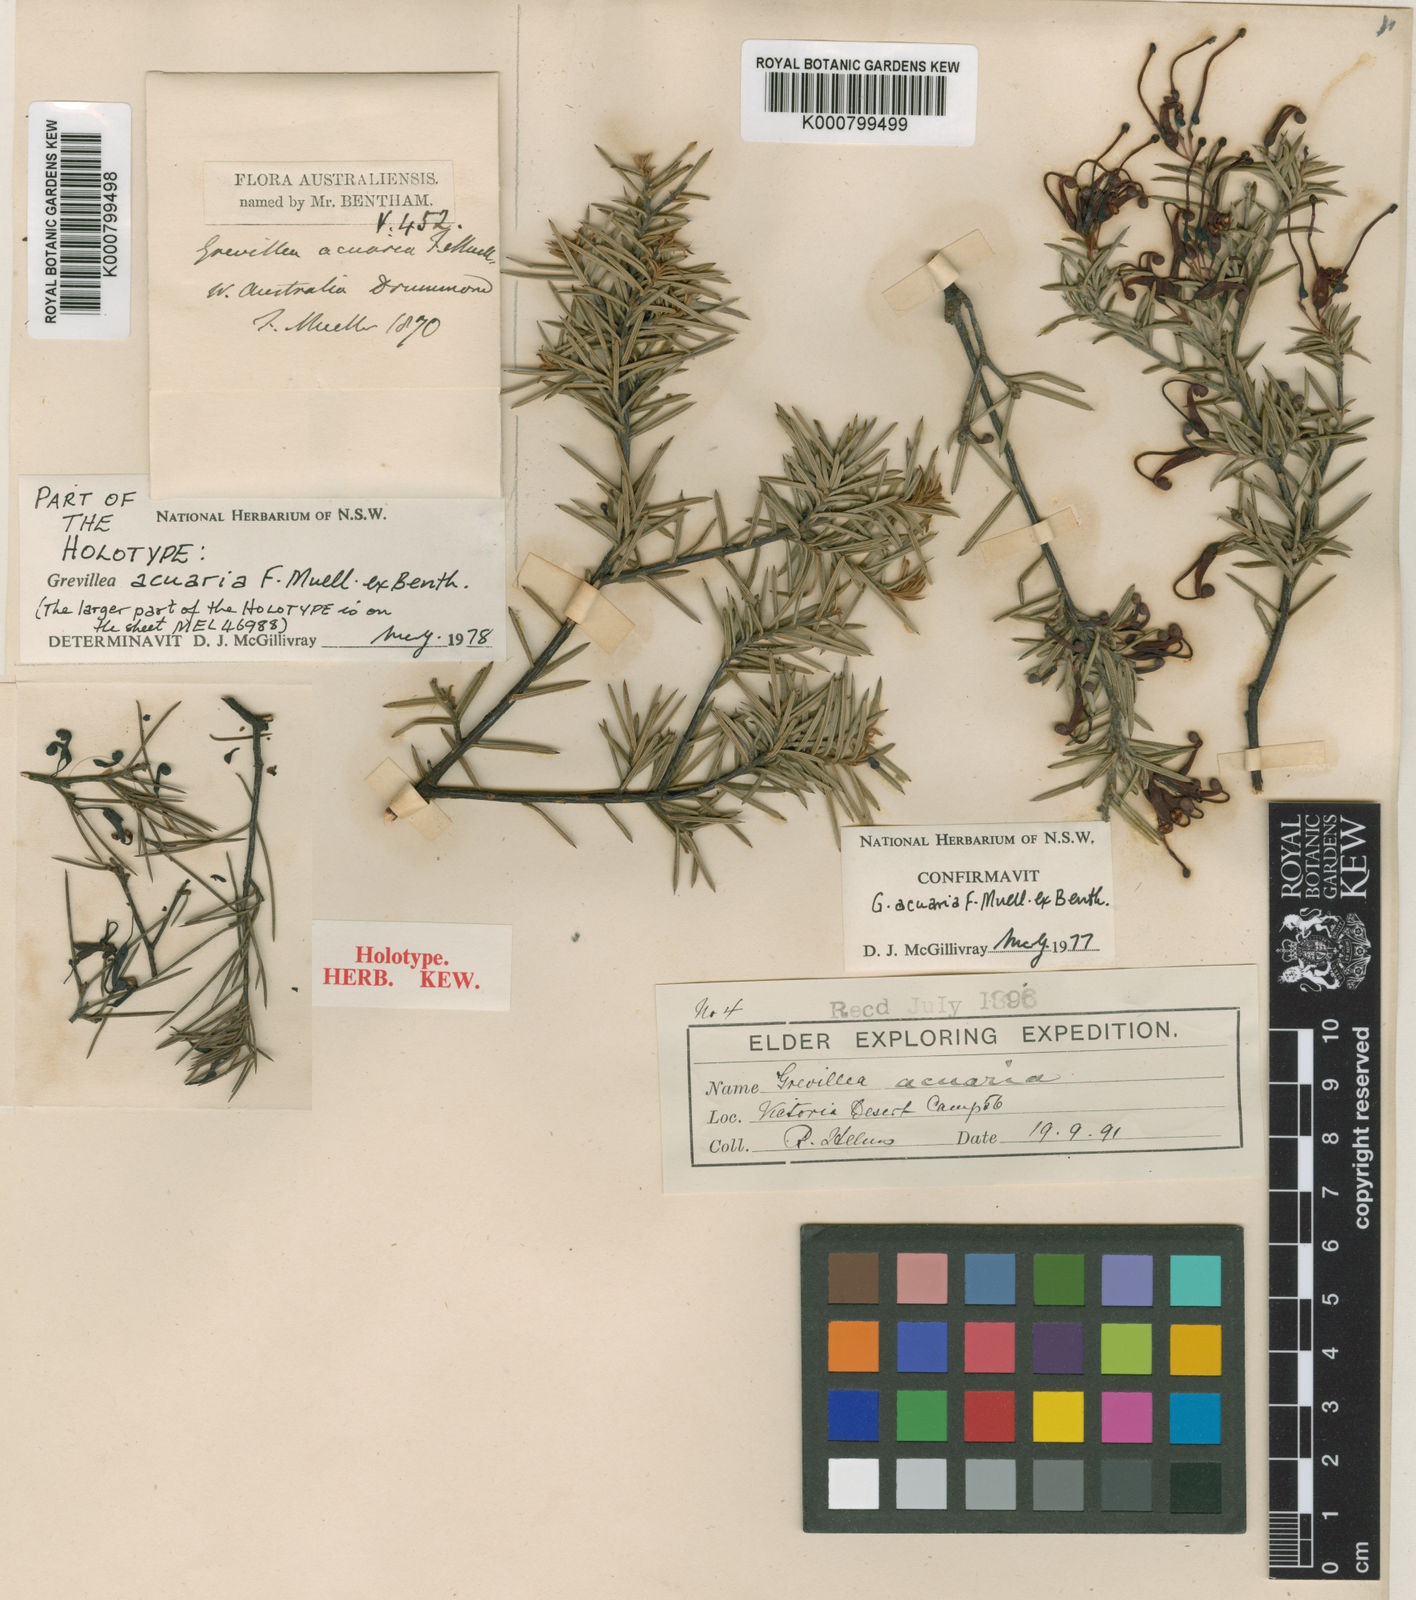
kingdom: Plantae
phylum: Tracheophyta
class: Magnoliopsida
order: Proteales
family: Proteaceae
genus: Grevillea
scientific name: Grevillea acuaria
